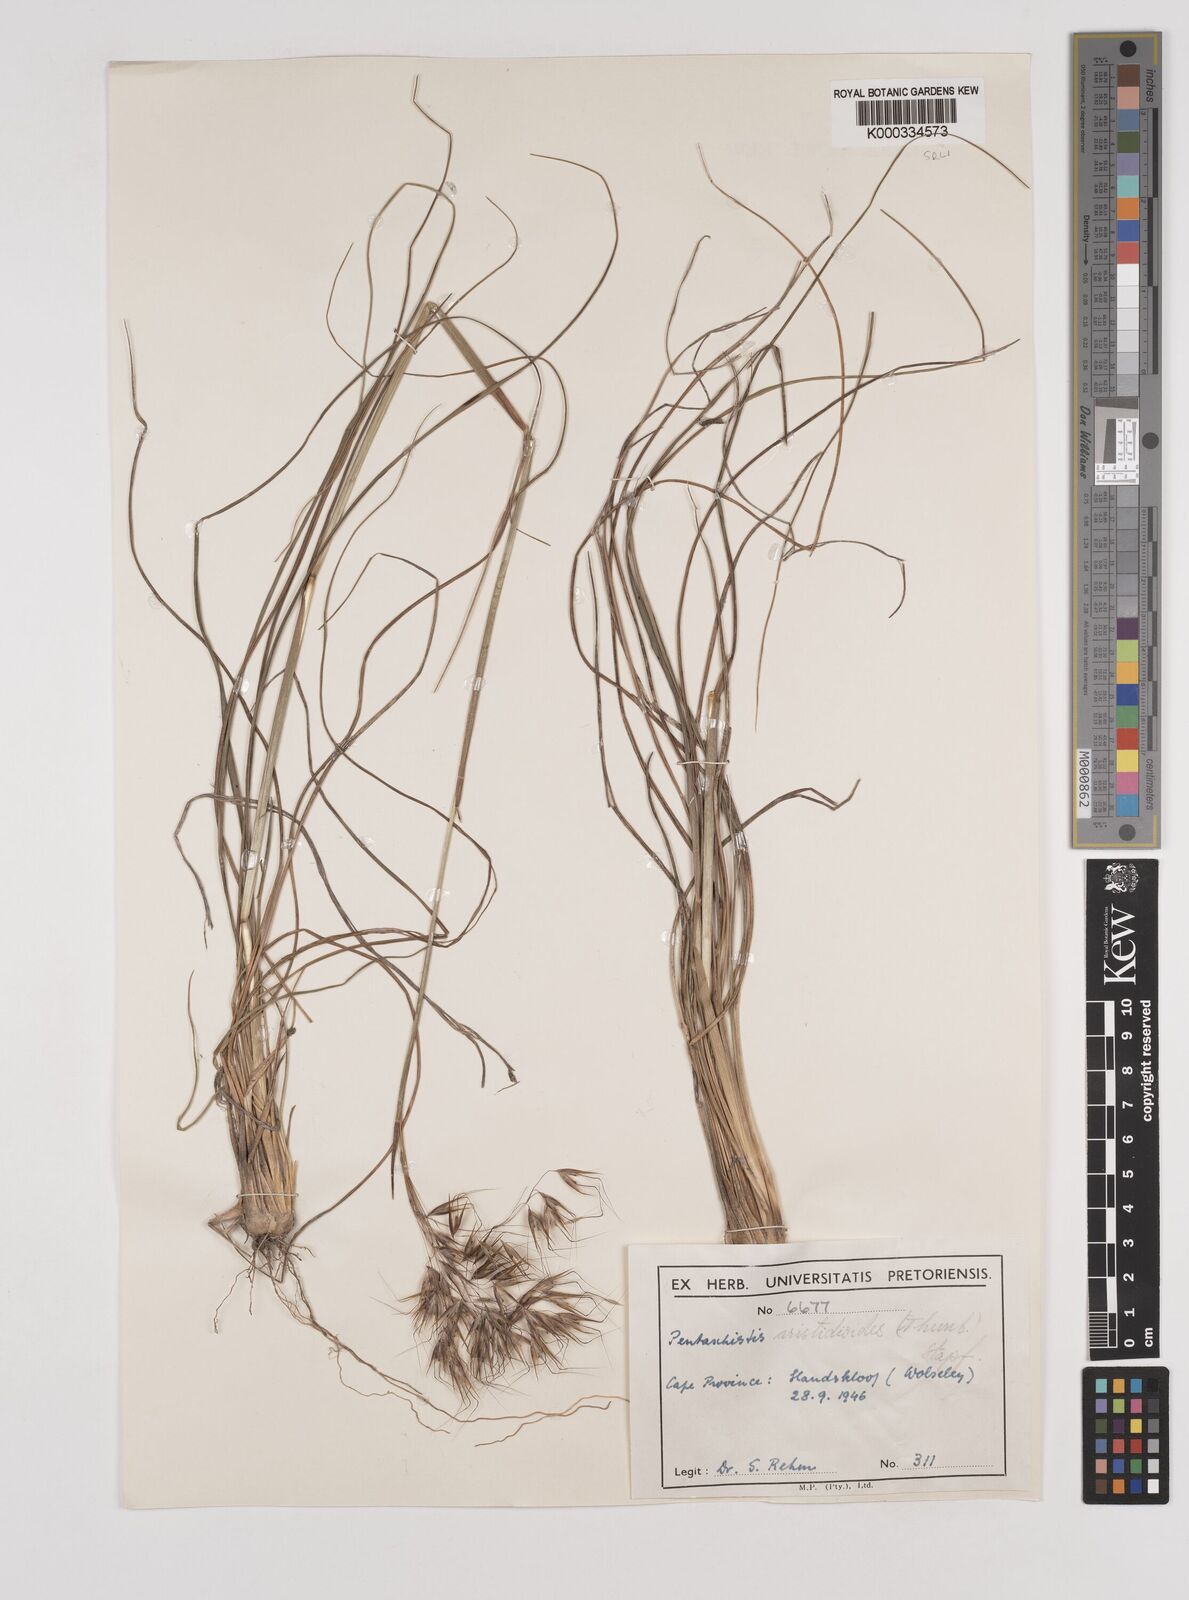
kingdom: Plantae
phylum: Tracheophyta
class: Liliopsida
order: Poales
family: Poaceae
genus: Pentameris
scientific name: Pentameris aristidoides
